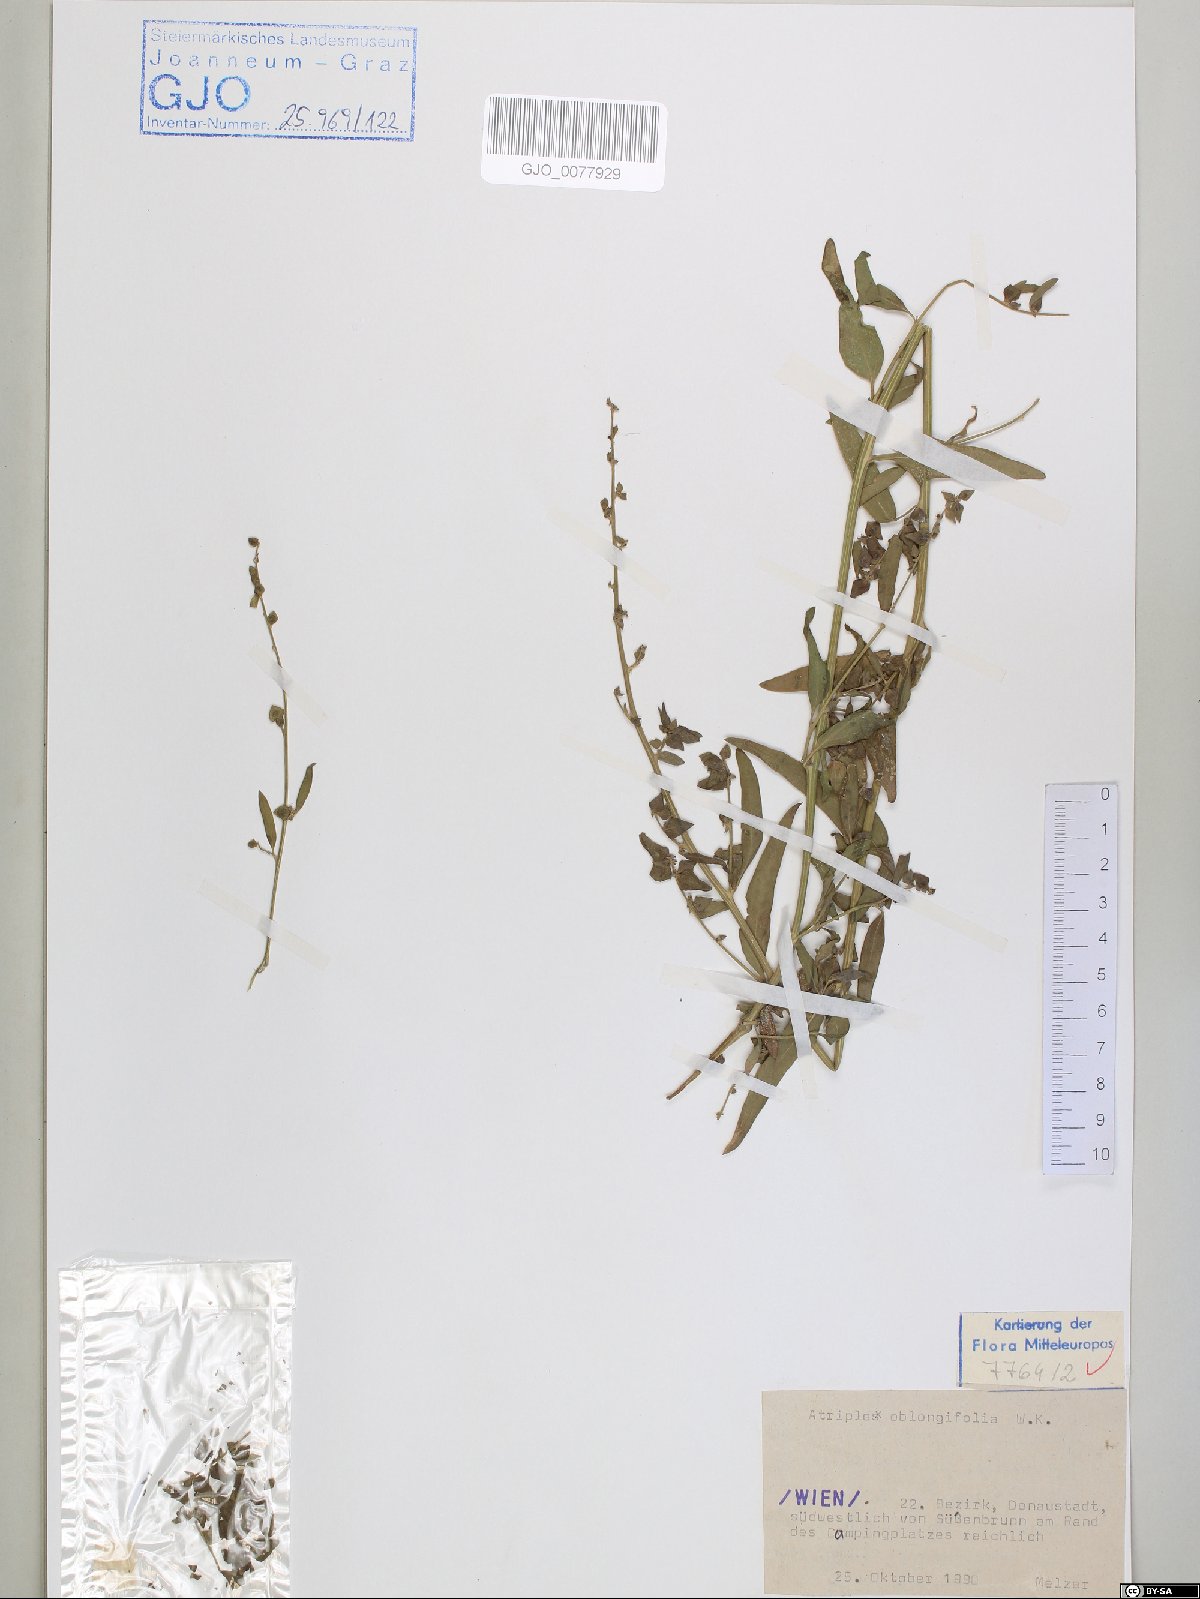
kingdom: Plantae
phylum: Tracheophyta
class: Magnoliopsida
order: Caryophyllales
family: Amaranthaceae
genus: Atriplex
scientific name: Atriplex oblongifolia
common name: Oblongleaf orache
